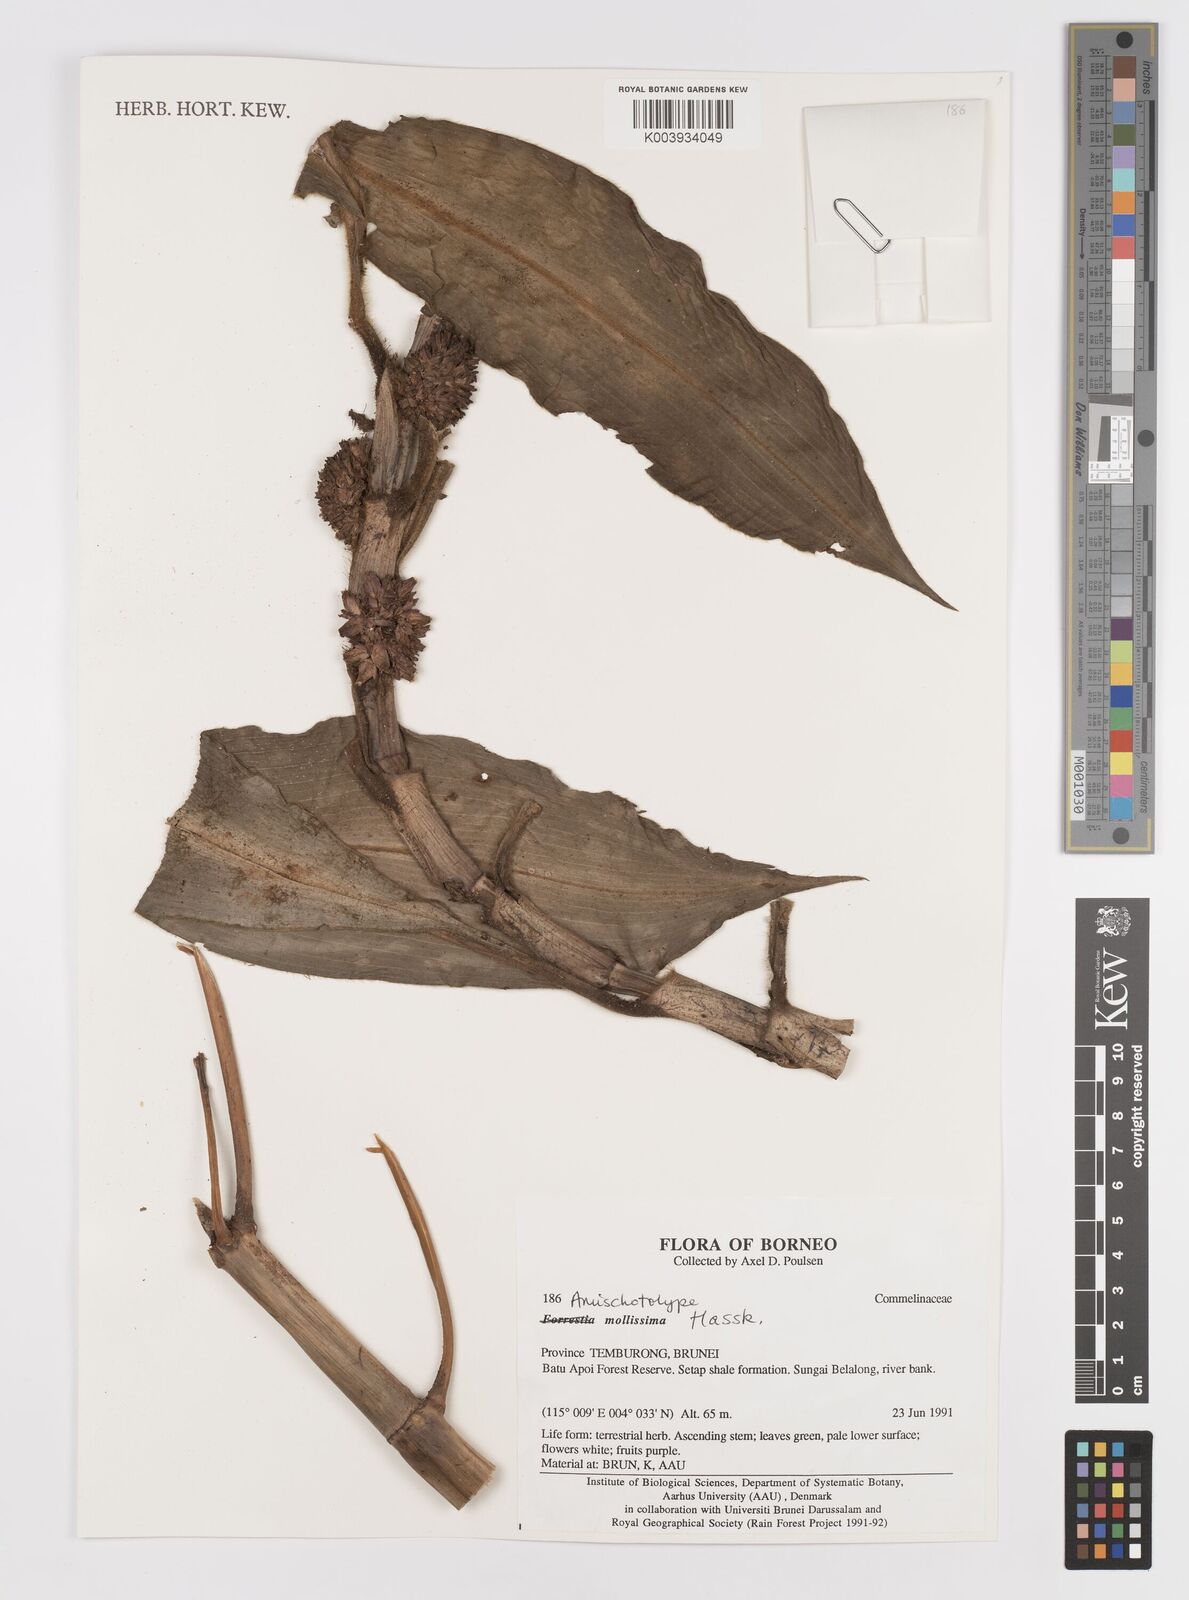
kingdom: Plantae
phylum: Tracheophyta
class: Liliopsida
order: Commelinales
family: Commelinaceae
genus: Amischotolype
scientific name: Amischotolype mollissima
